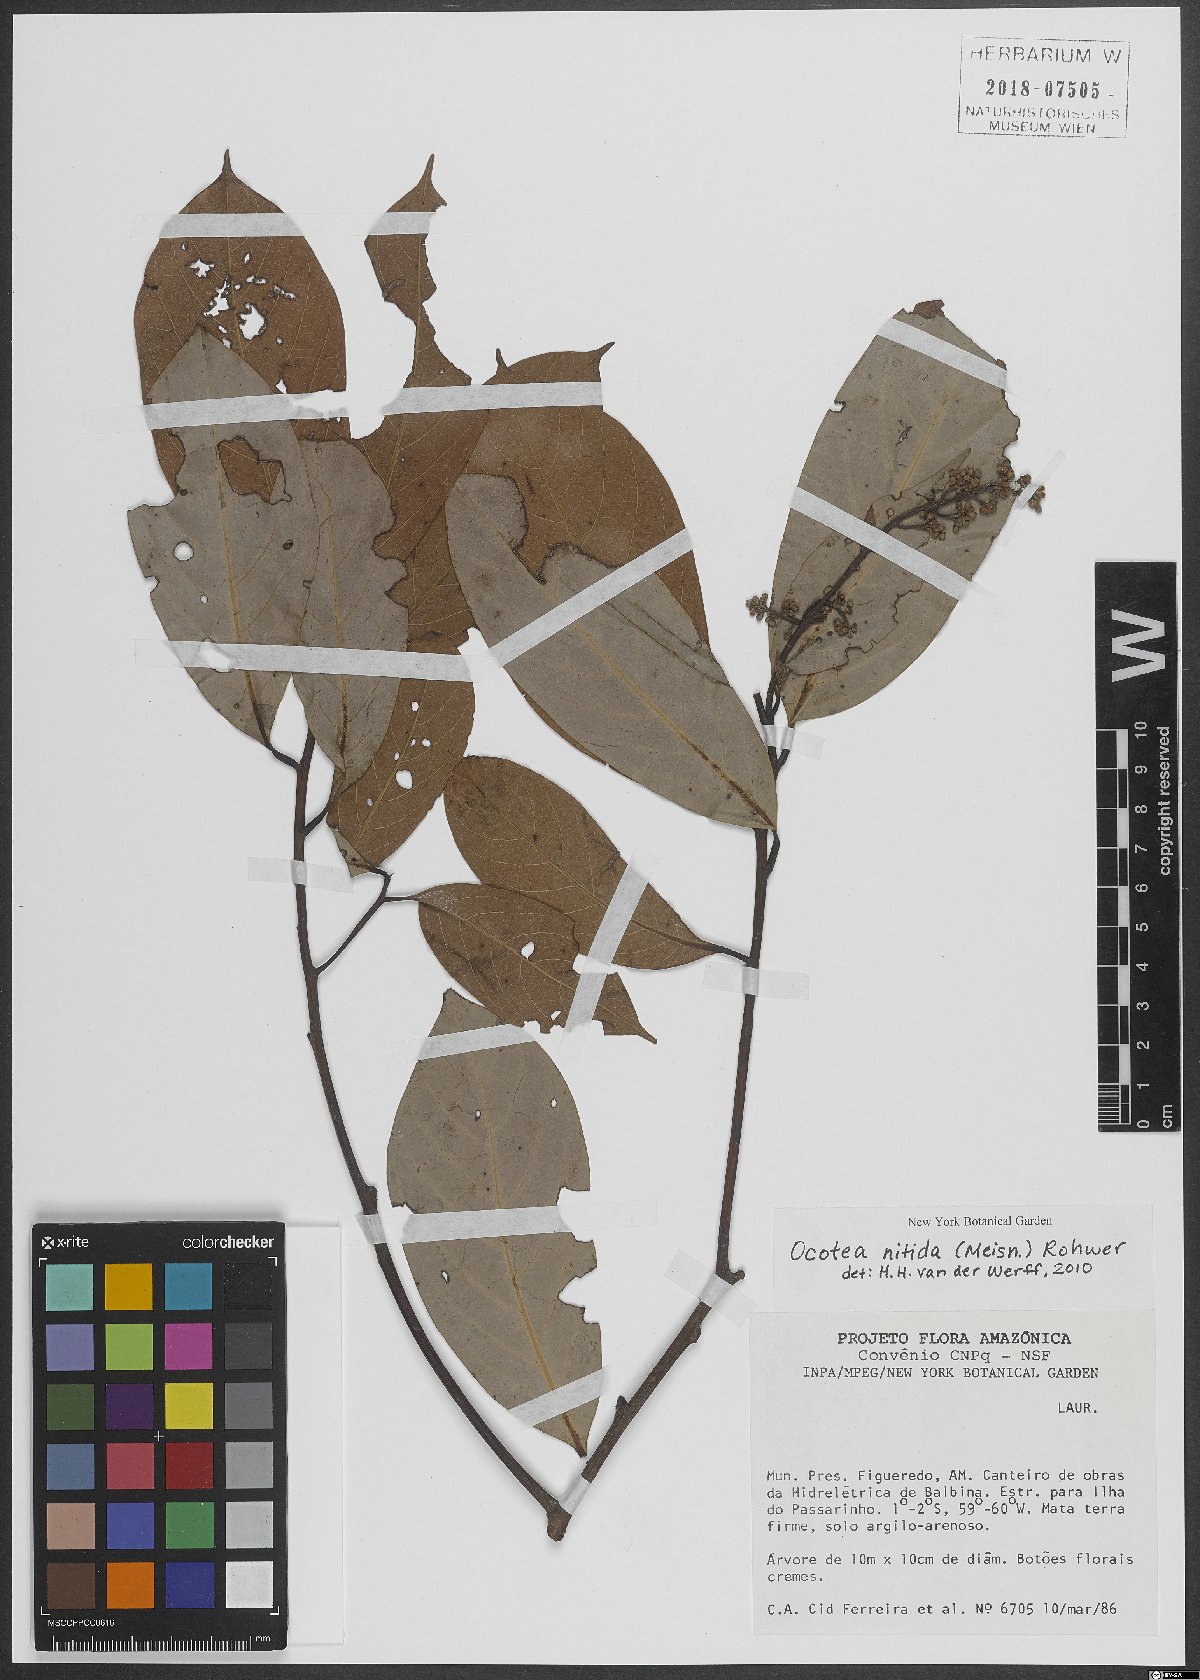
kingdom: Plantae
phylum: Tracheophyta
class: Magnoliopsida
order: Laurales
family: Lauraceae
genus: Ocotea
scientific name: Ocotea nitida
